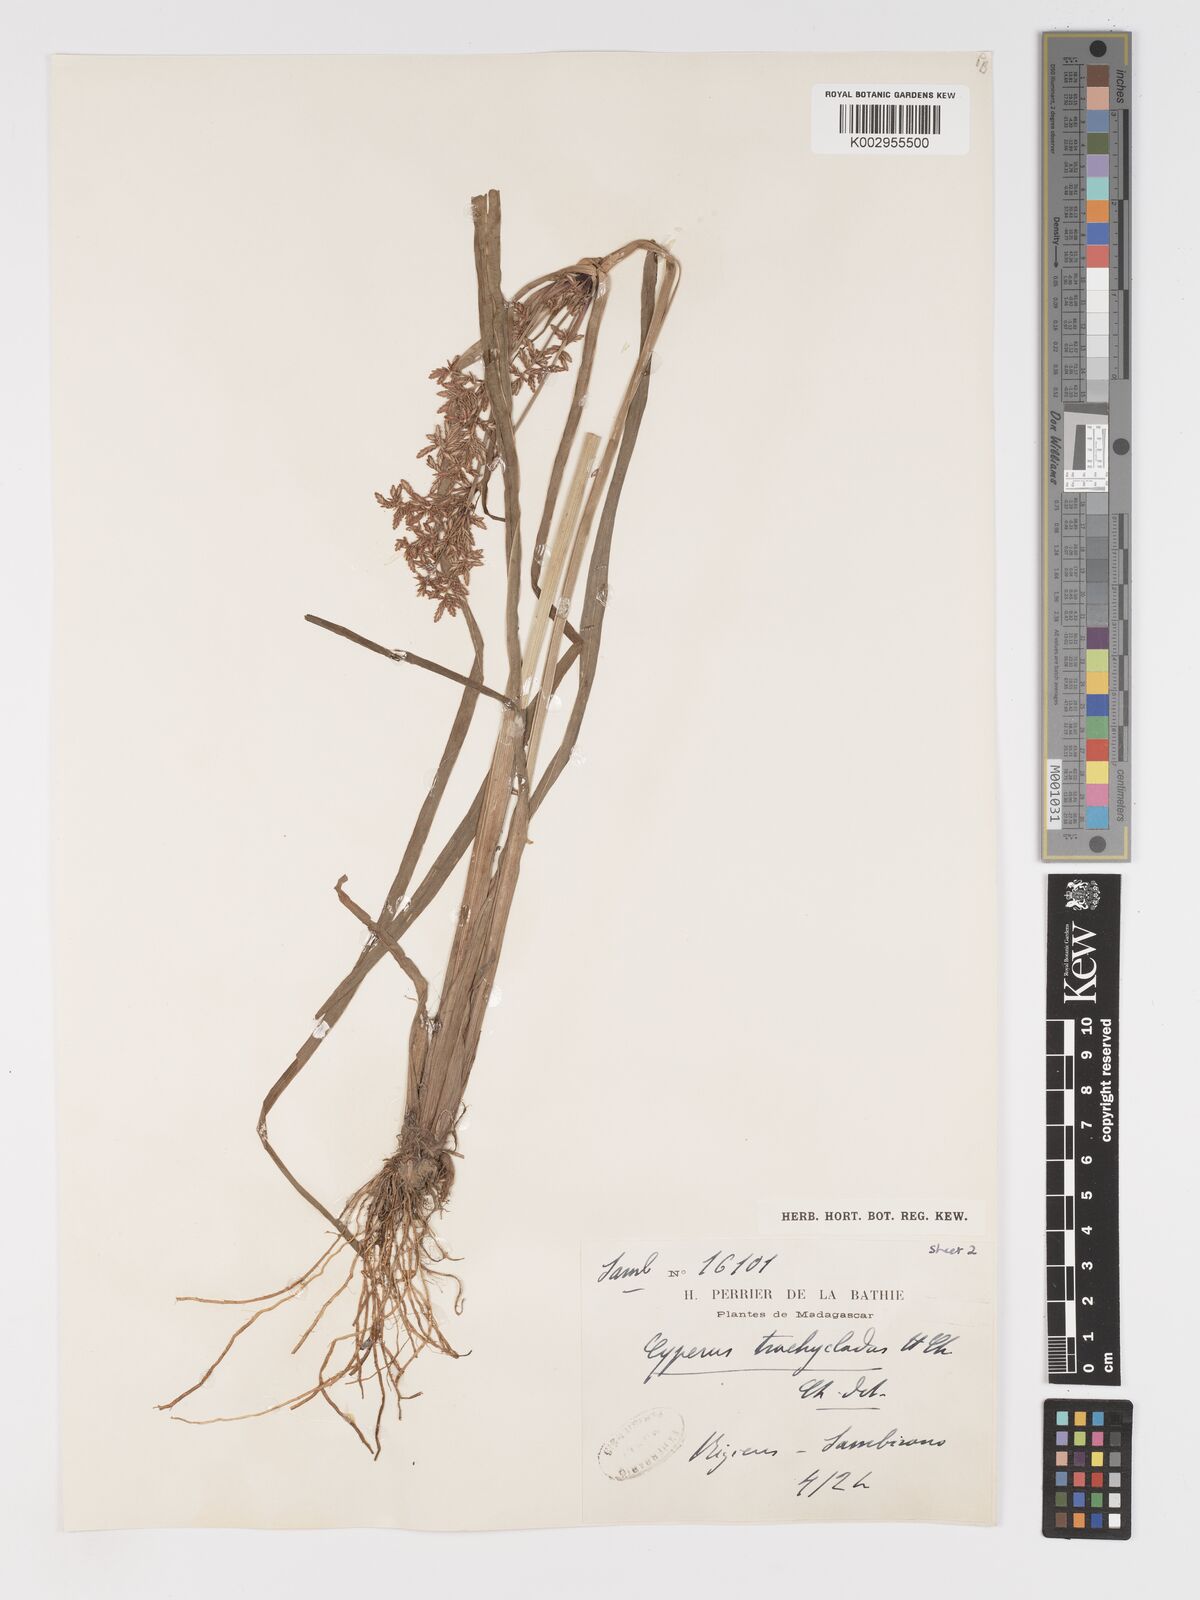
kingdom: Plantae
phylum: Tracheophyta
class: Liliopsida
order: Poales
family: Cyperaceae
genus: Cyperus
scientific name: Cyperus incompressus
